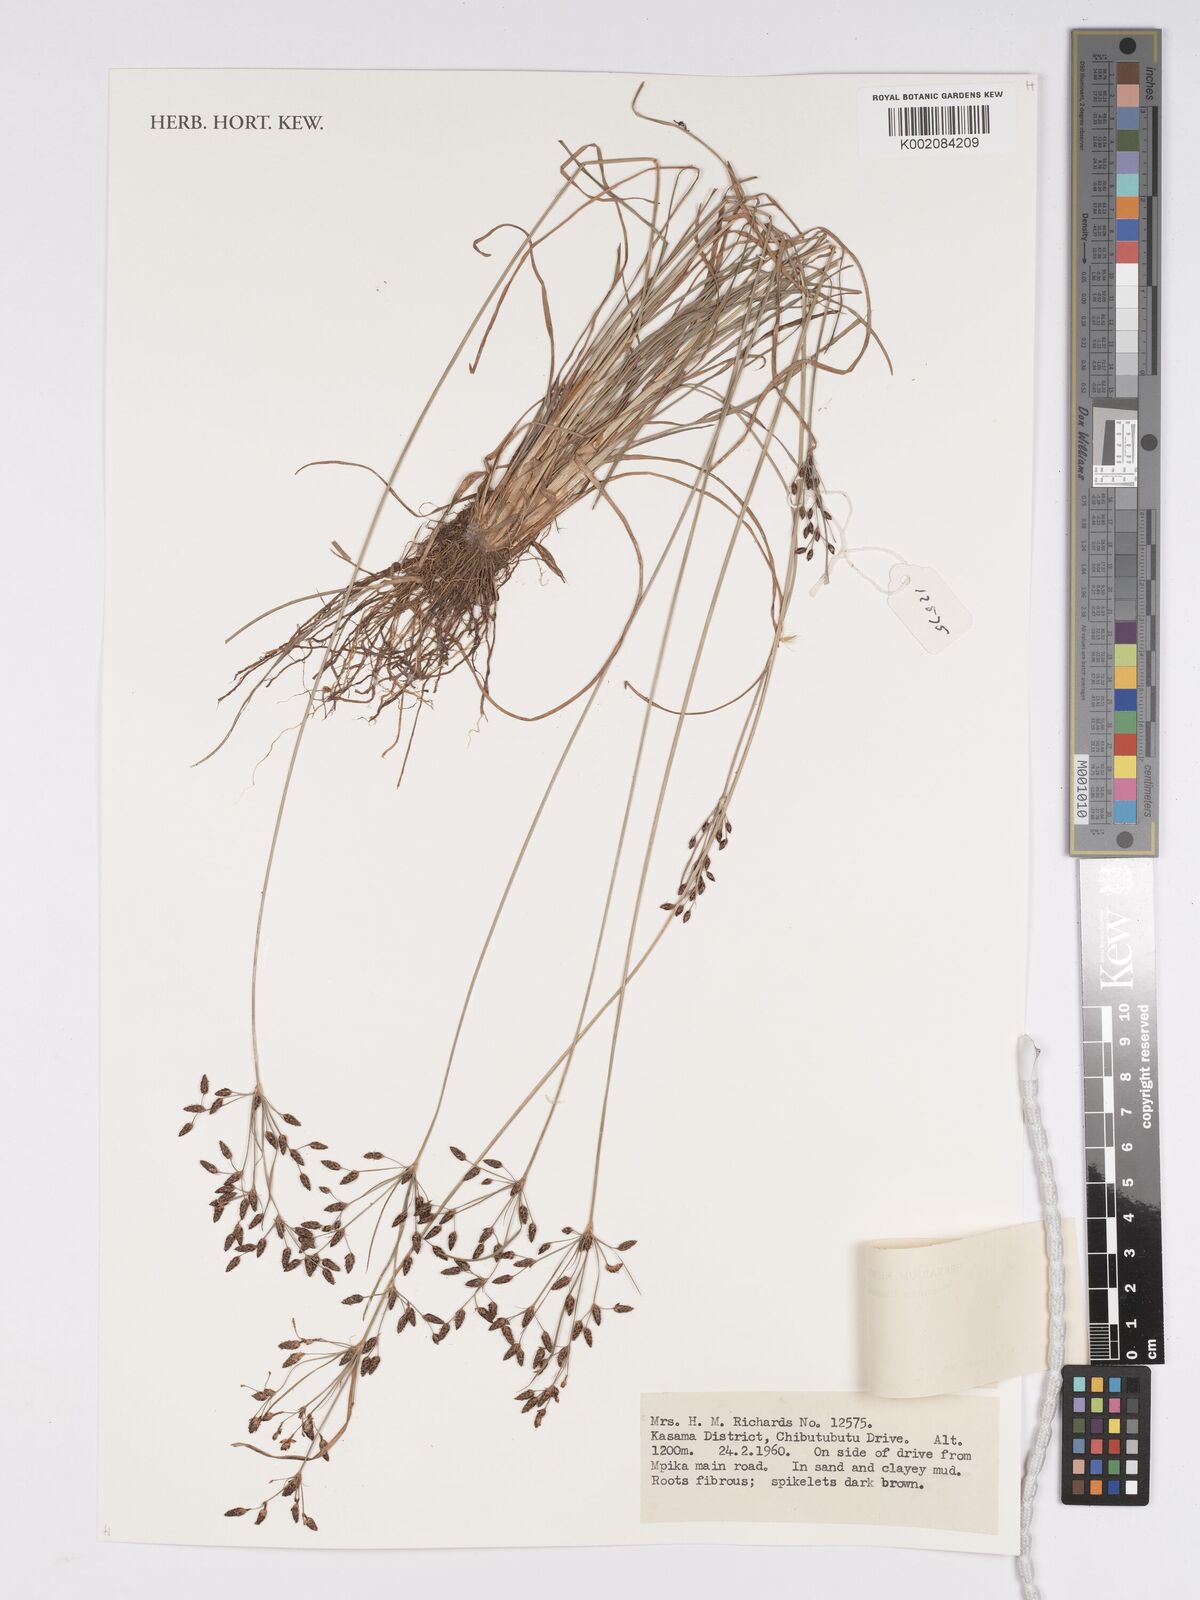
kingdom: Plantae
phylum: Tracheophyta
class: Liliopsida
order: Poales
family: Cyperaceae
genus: Bulbostylis
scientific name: Bulbostylis
